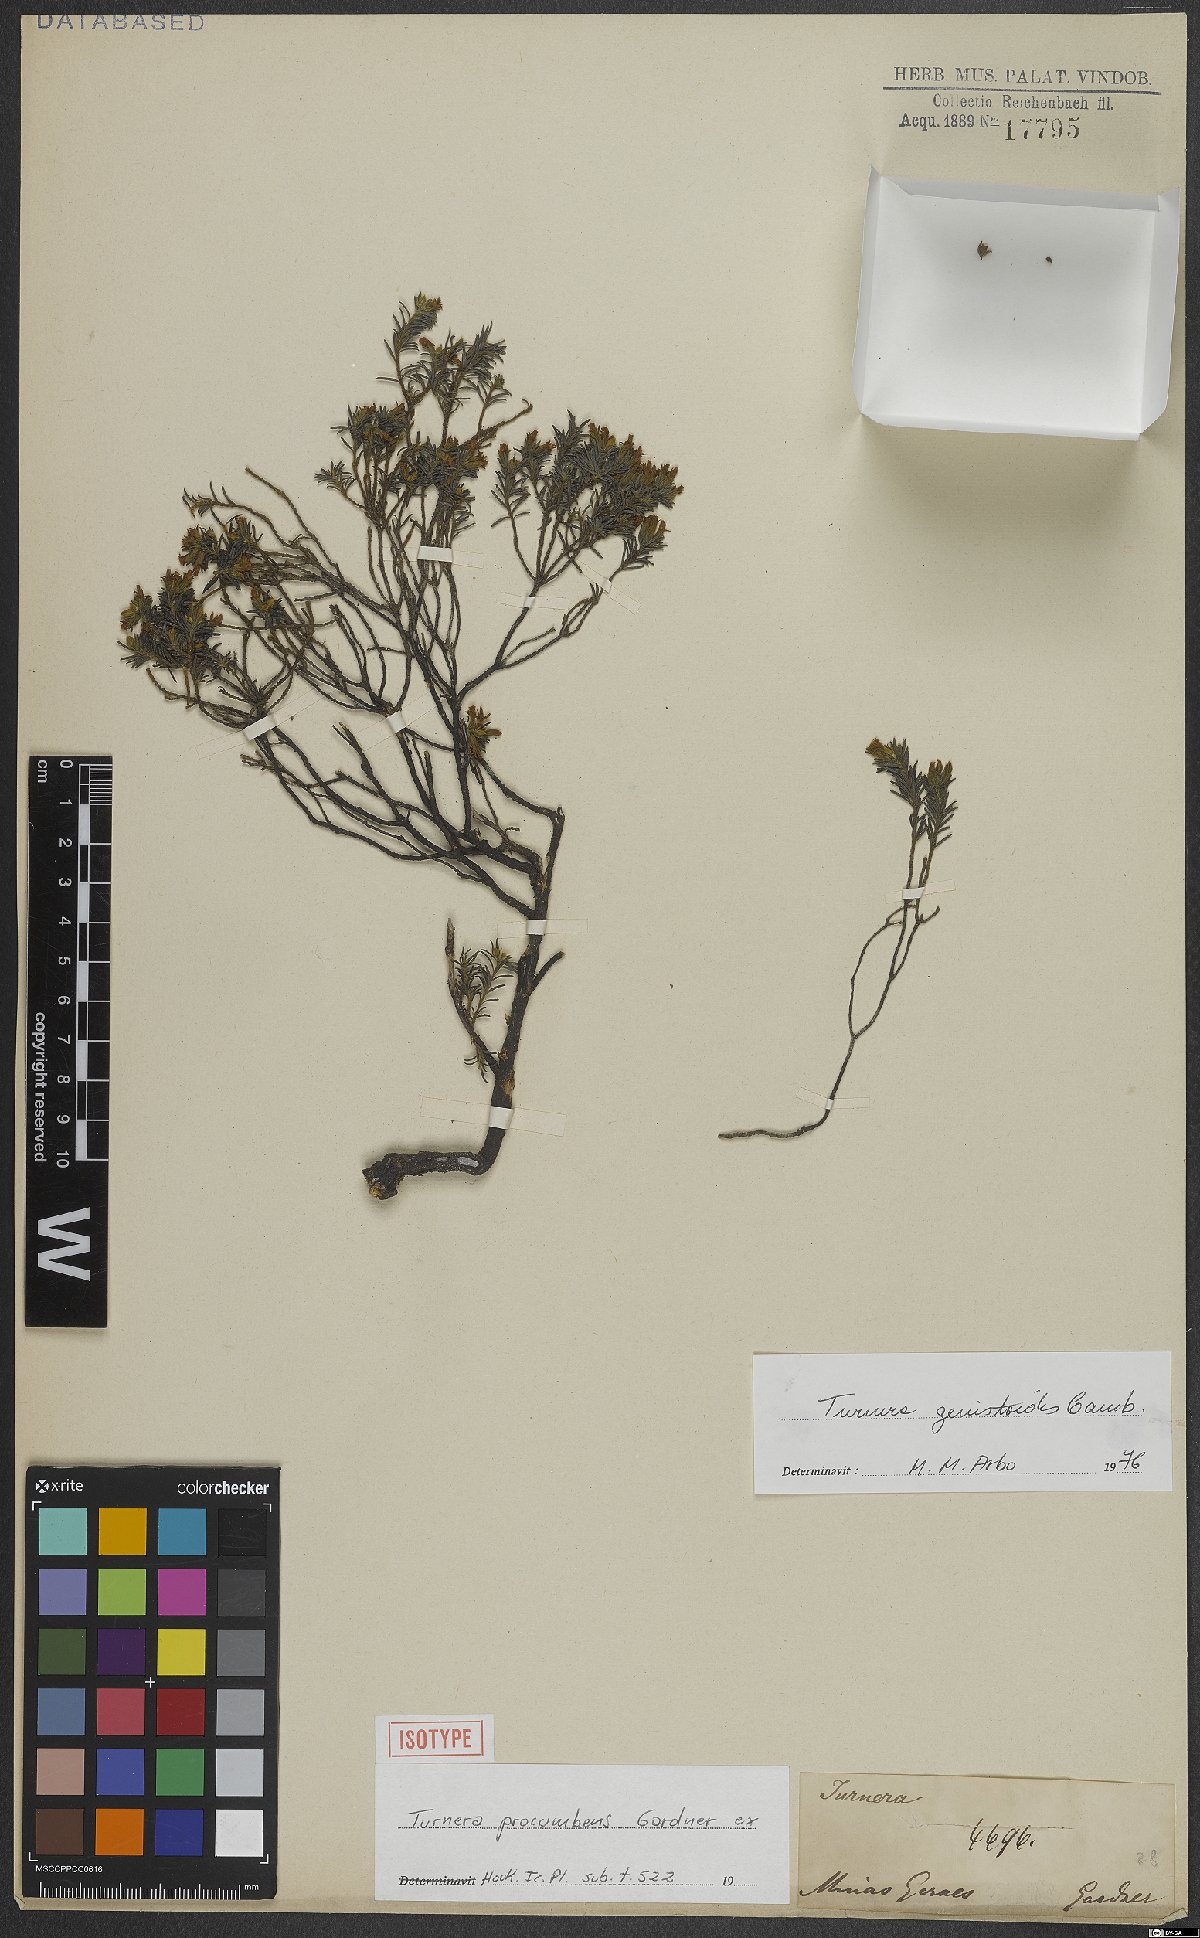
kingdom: Plantae
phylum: Tracheophyta
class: Magnoliopsida
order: Malpighiales
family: Turneraceae
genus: Turnera
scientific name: Turnera genistoides
